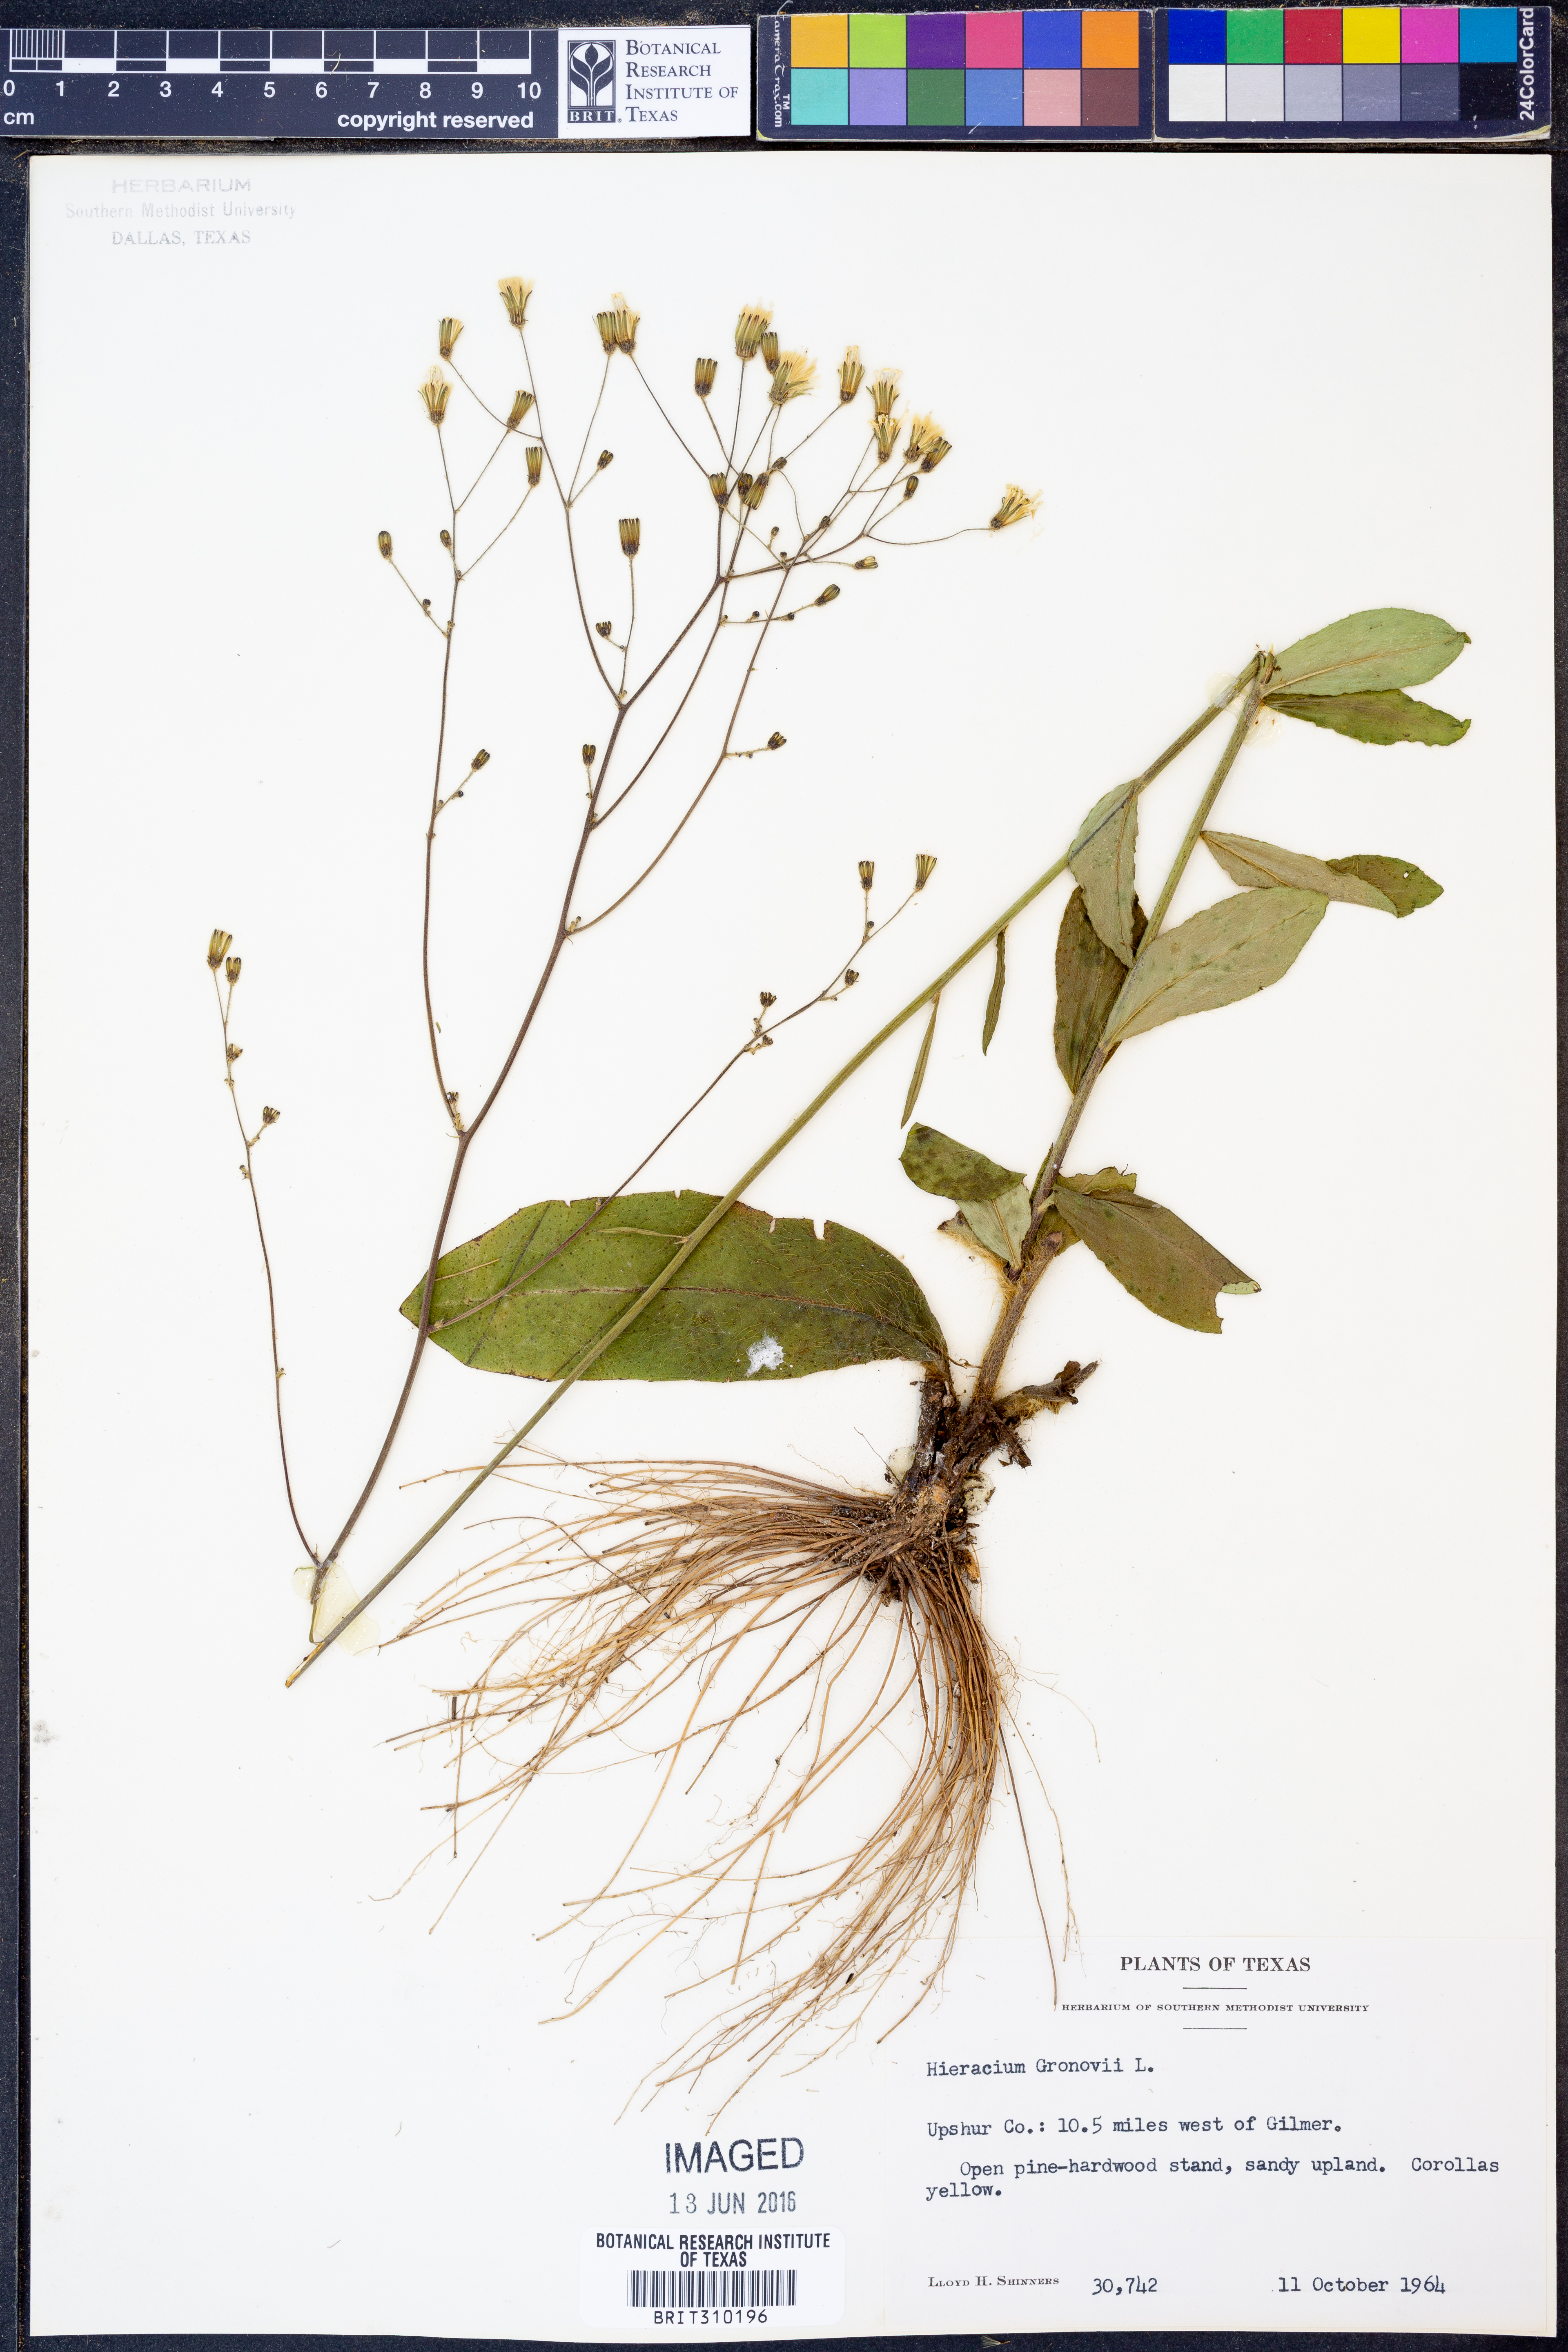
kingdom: Plantae
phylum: Tracheophyta
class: Magnoliopsida
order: Asterales
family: Asteraceae
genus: Hieracium
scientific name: Hieracium gronovii
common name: Beaked hawkweed
